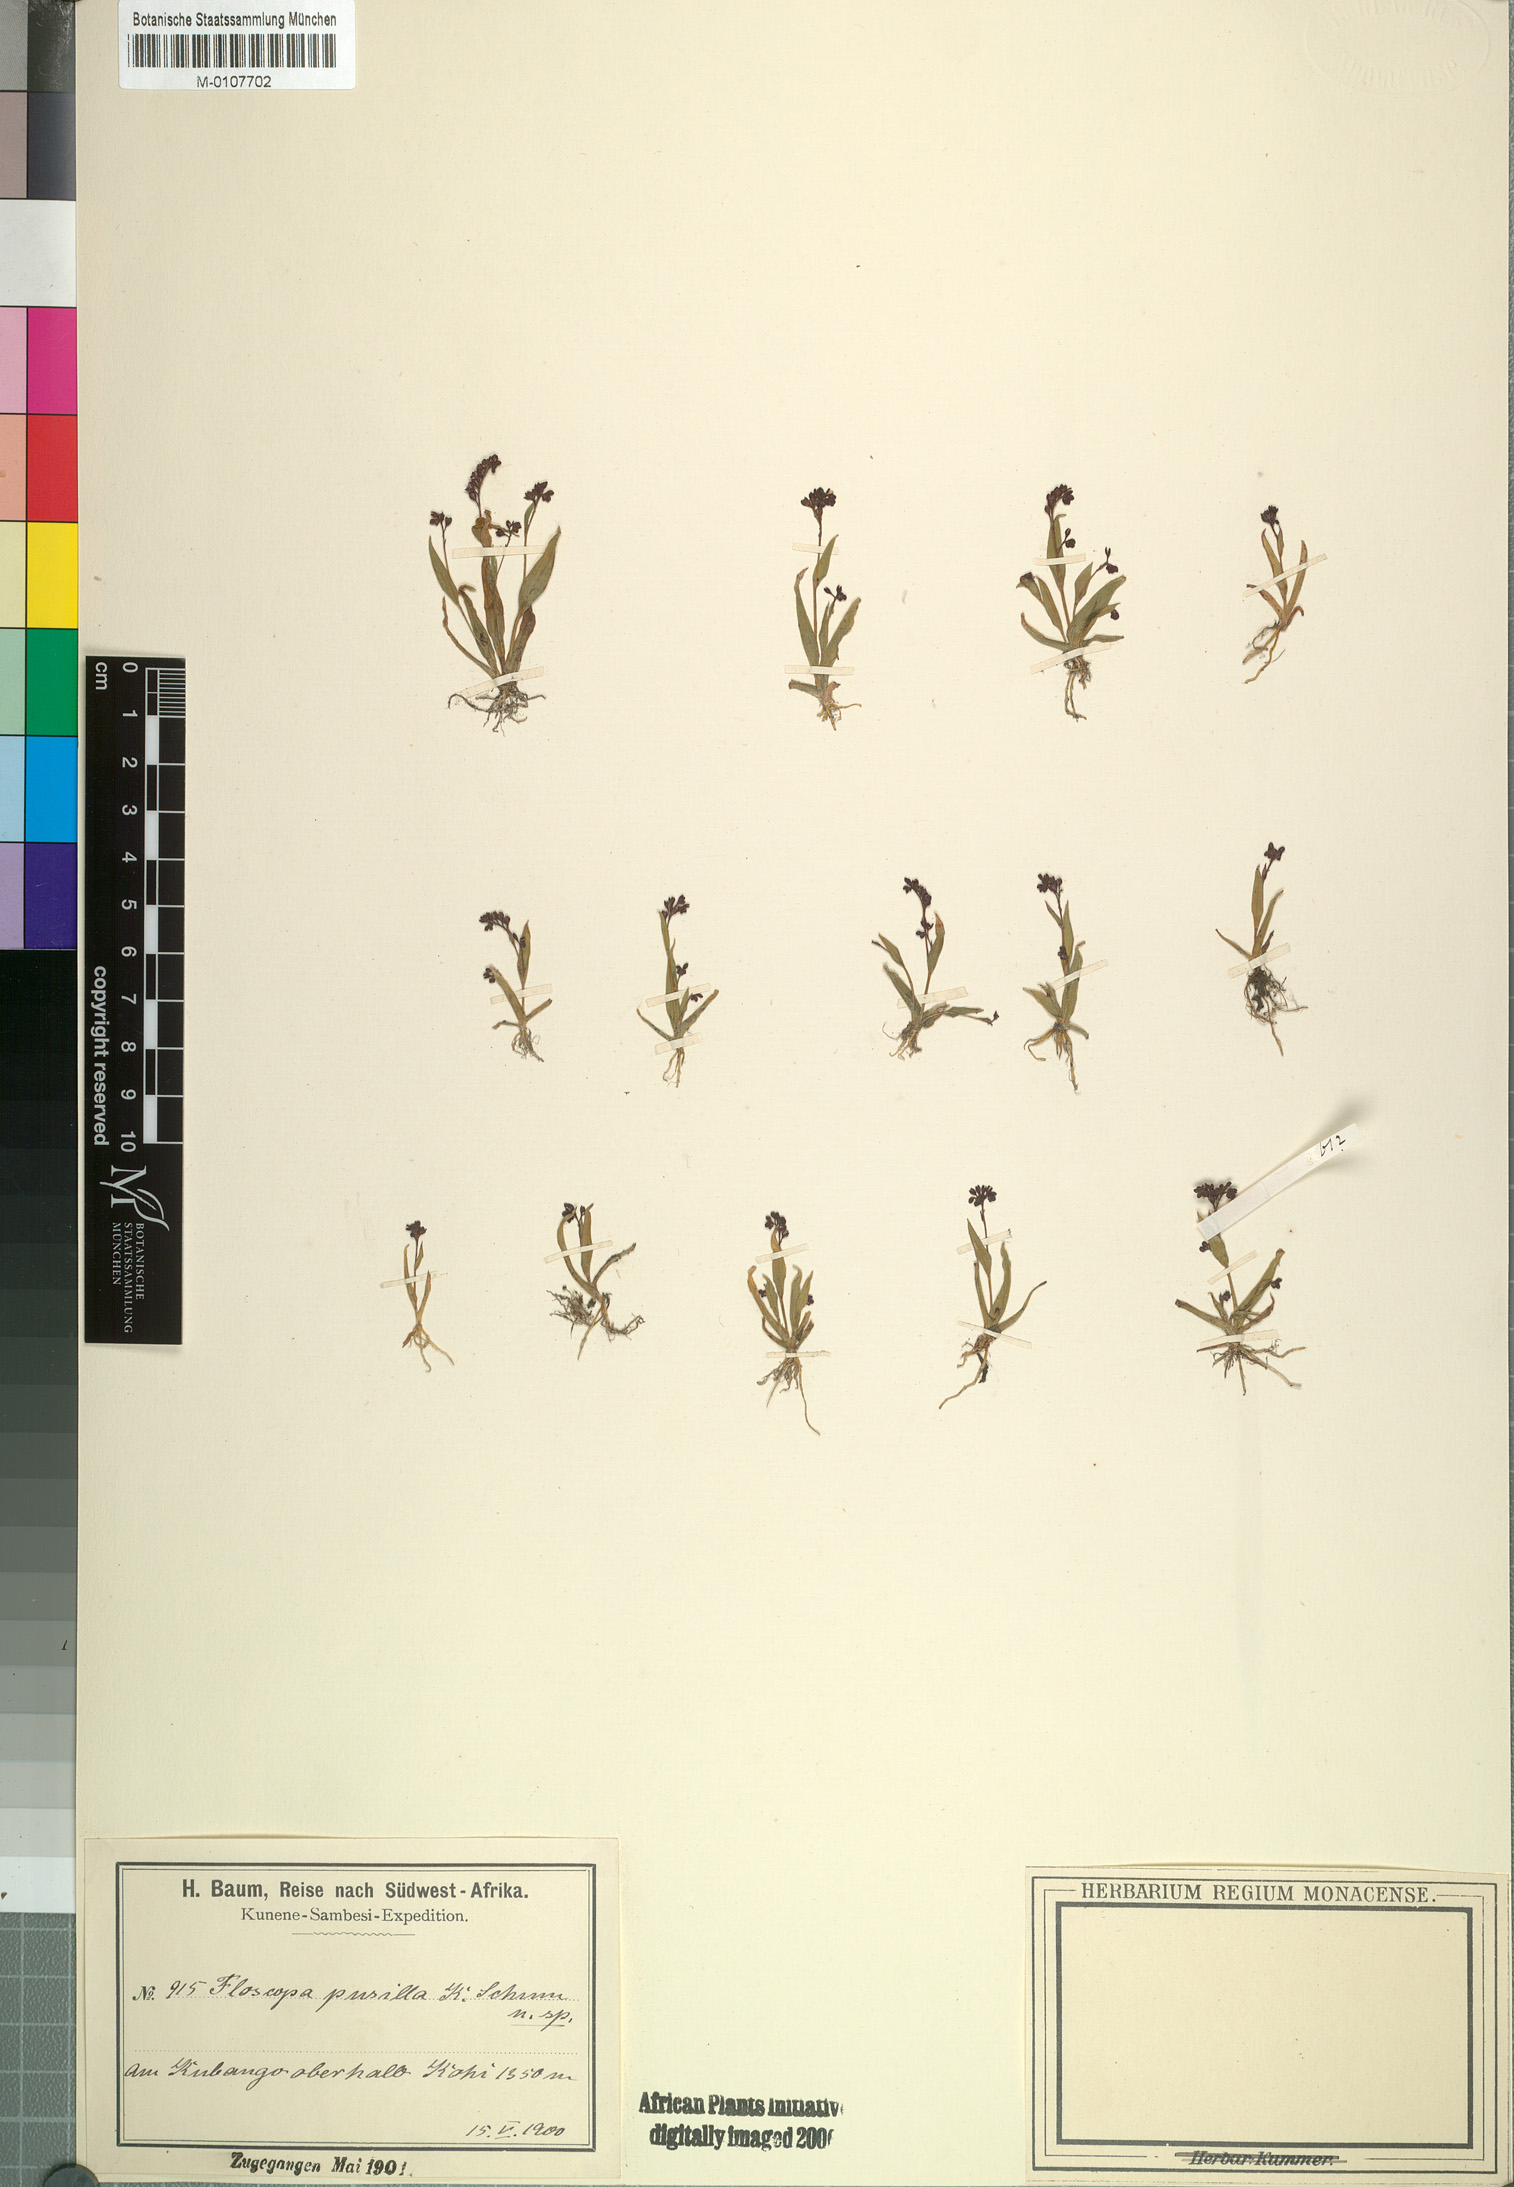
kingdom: Plantae
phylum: Tracheophyta
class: Liliopsida
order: Commelinales
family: Commelinaceae
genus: Floscopa
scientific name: Floscopa flavida
